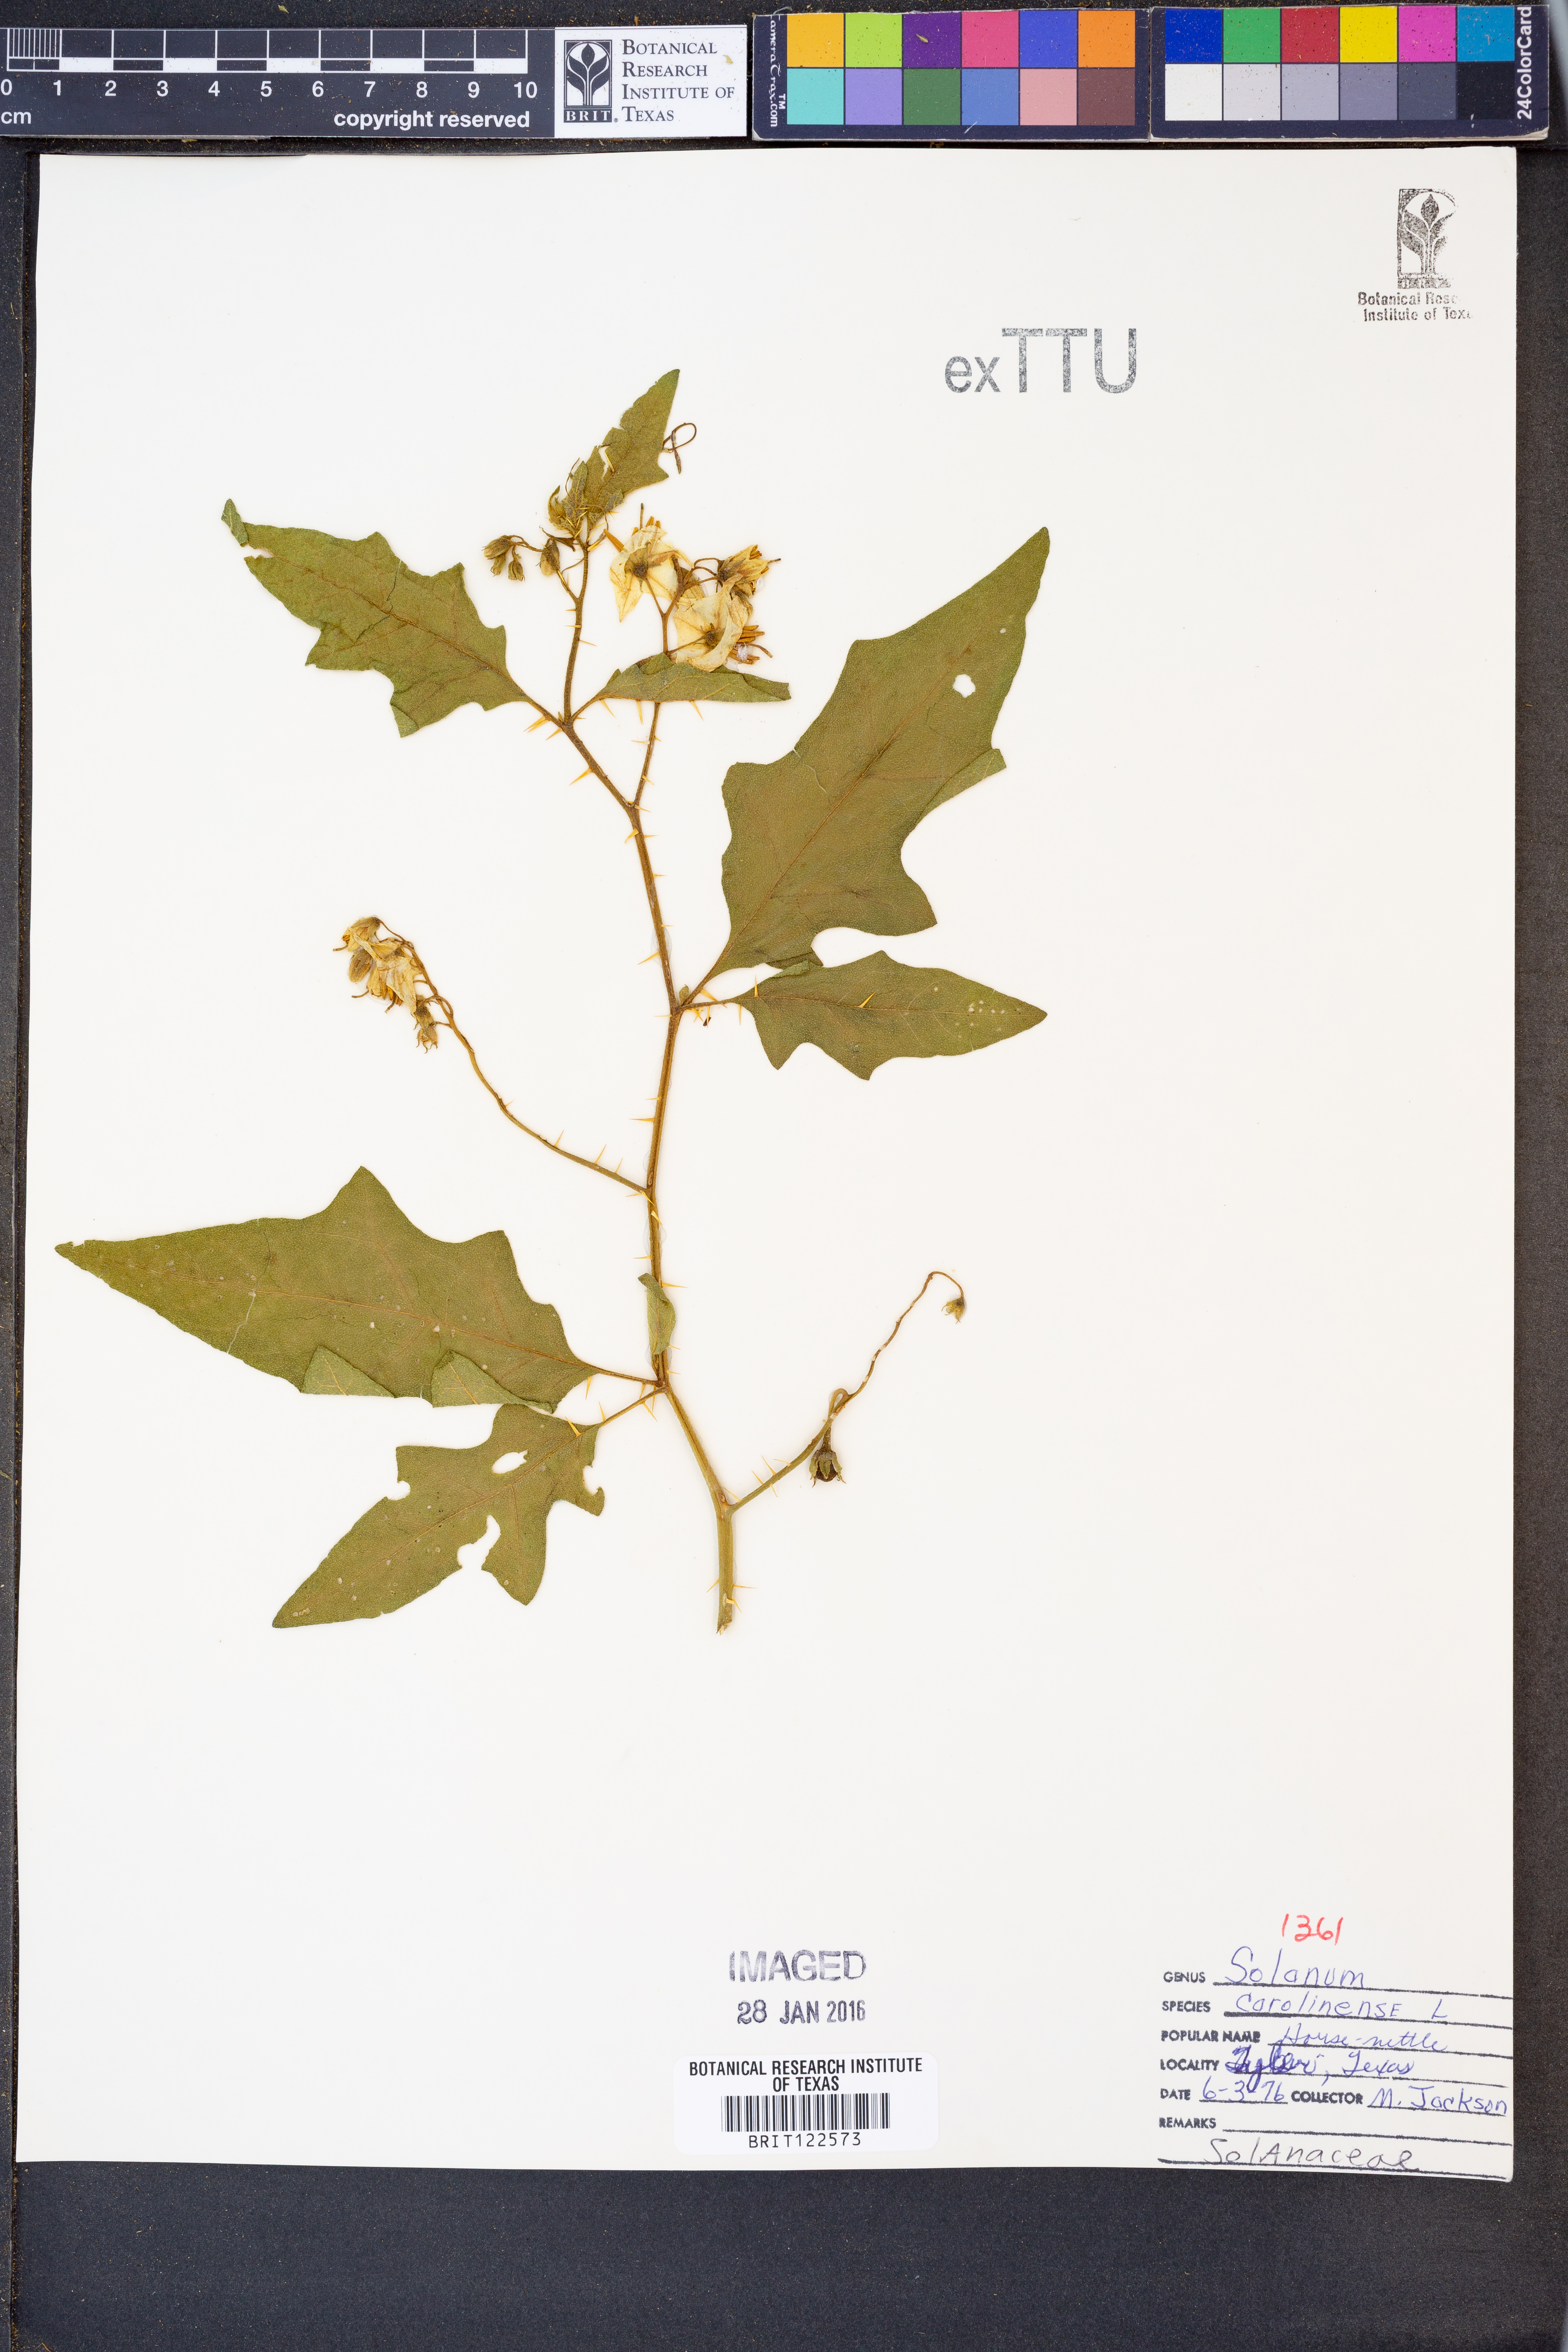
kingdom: Plantae
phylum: Tracheophyta
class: Magnoliopsida
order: Solanales
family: Solanaceae
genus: Solanum
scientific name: Solanum carolinense
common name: Horse-nettle
